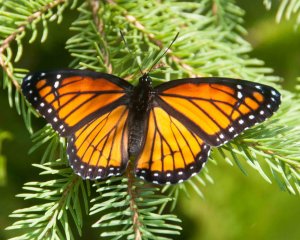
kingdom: Animalia
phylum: Arthropoda
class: Insecta
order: Lepidoptera
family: Nymphalidae
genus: Limenitis
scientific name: Limenitis archippus
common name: Viceroy
